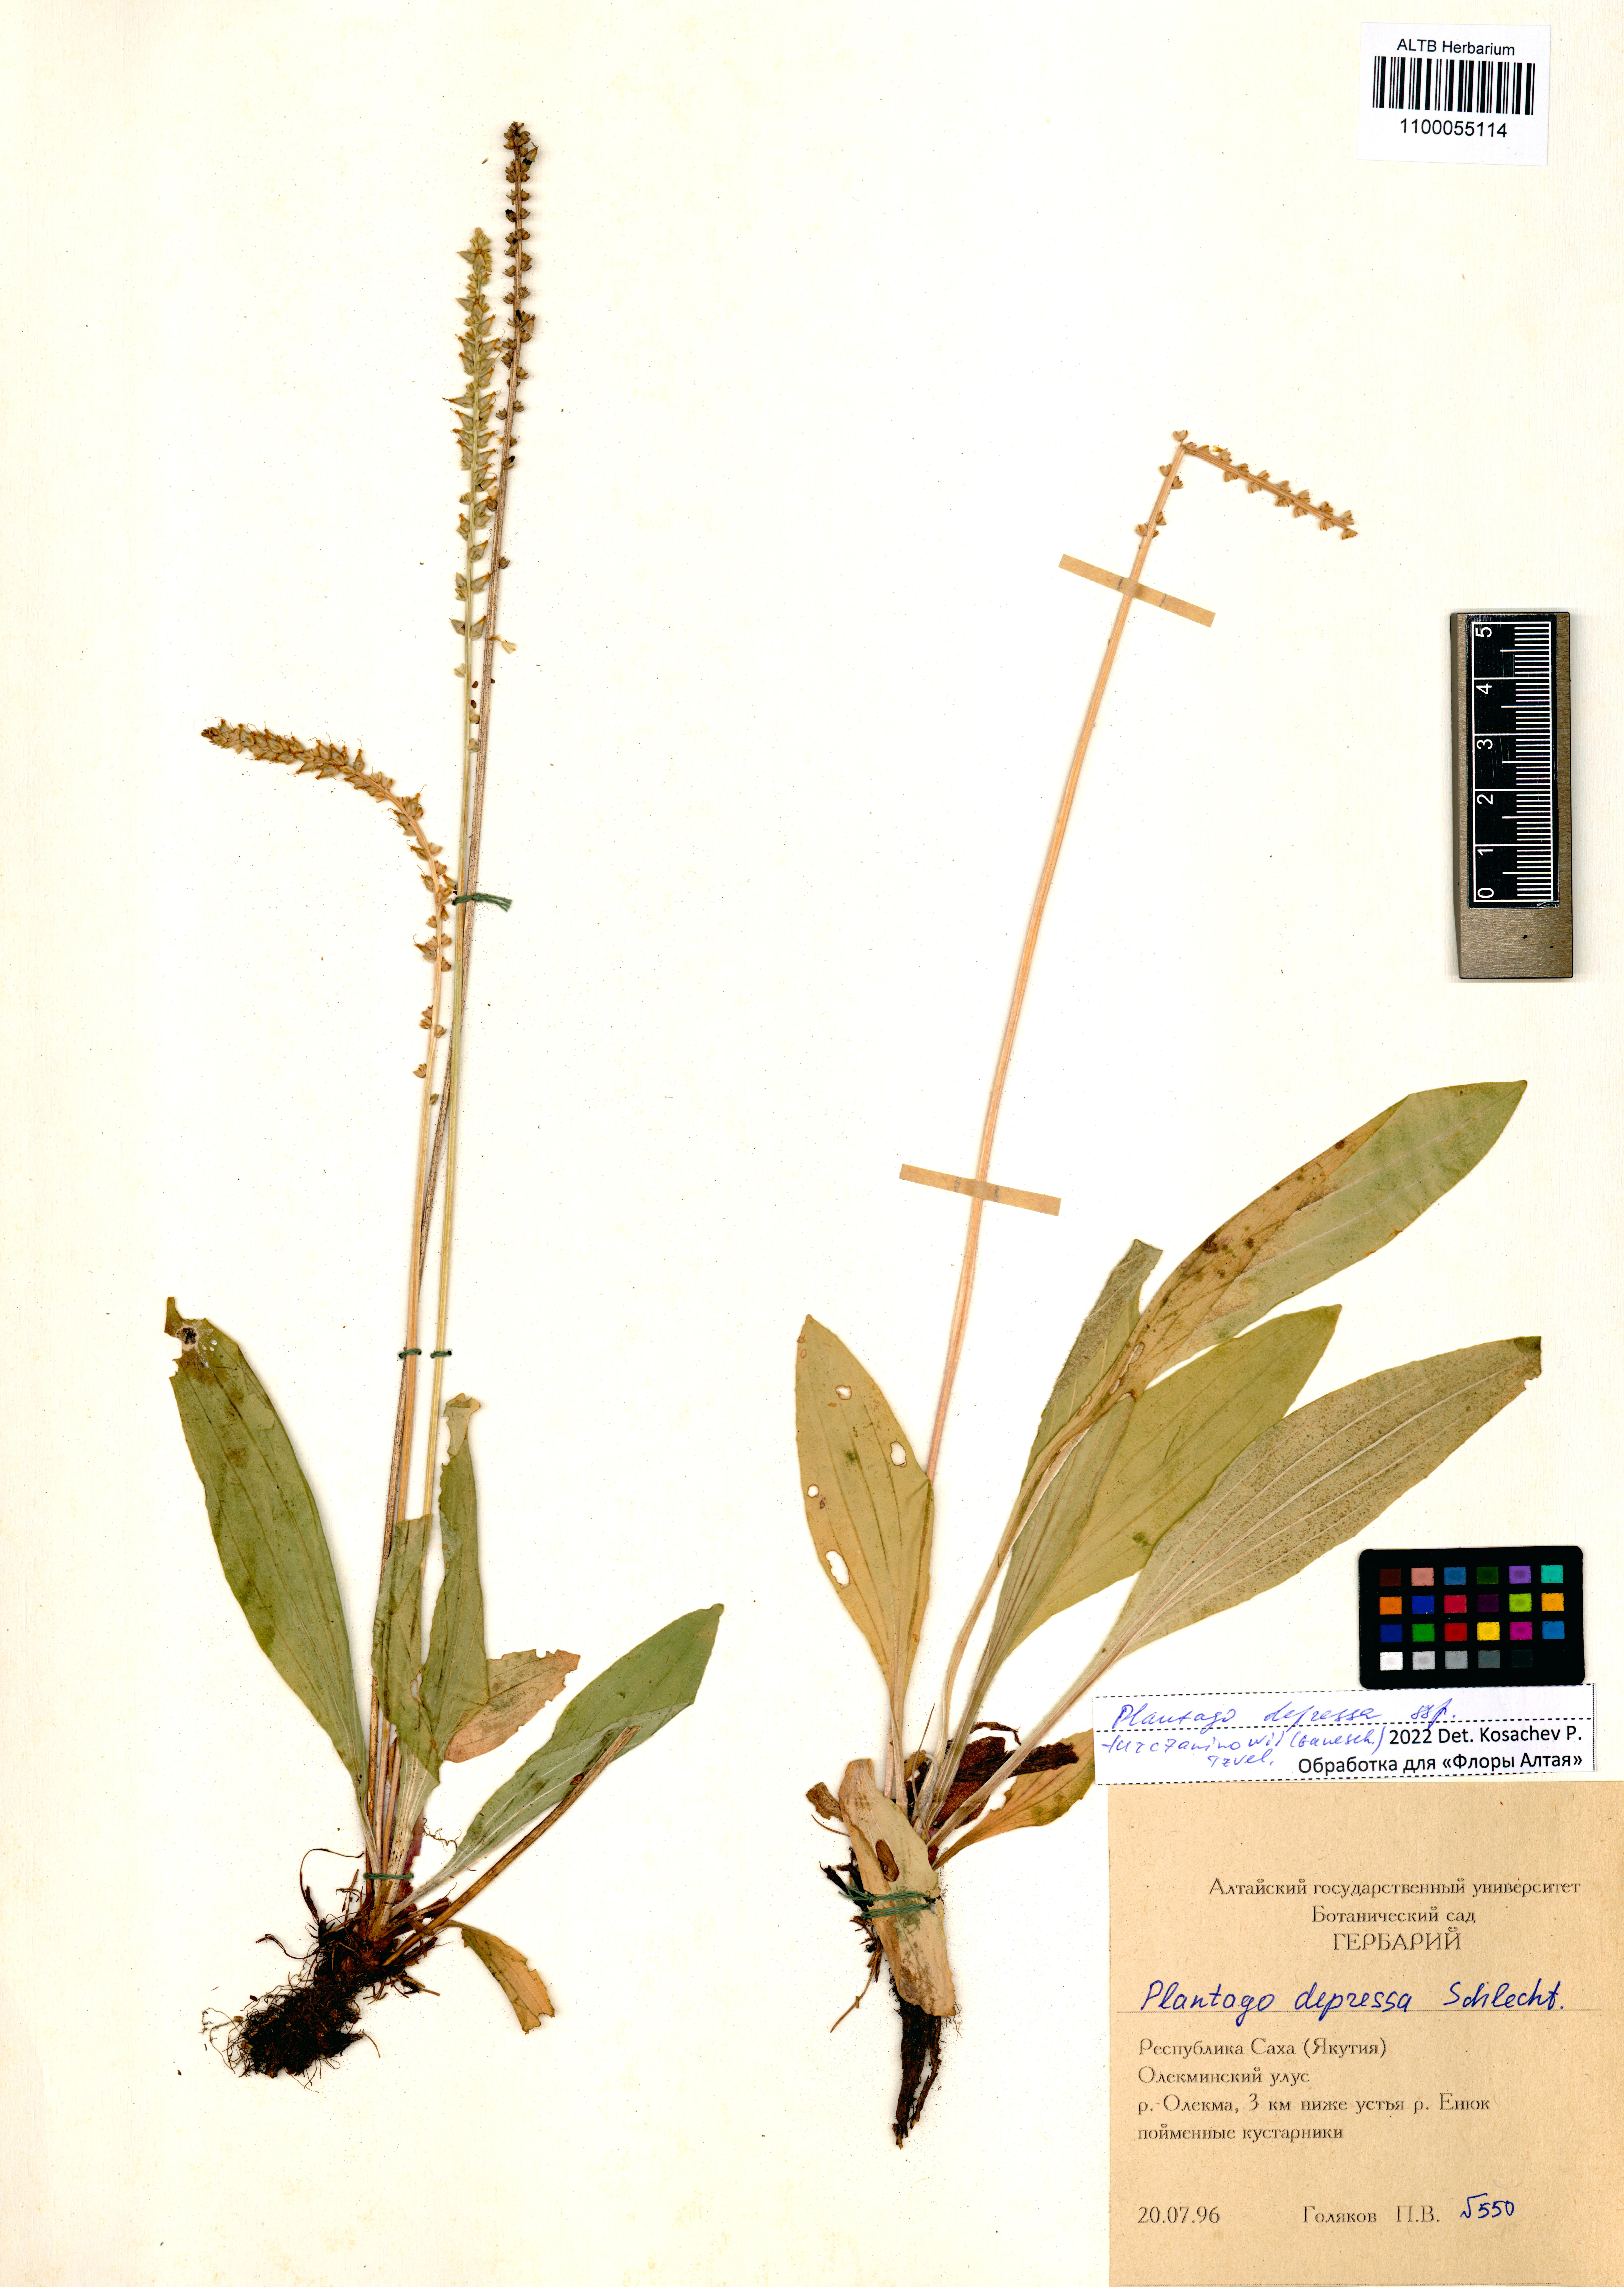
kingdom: Plantae
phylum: Tracheophyta
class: Magnoliopsida
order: Lamiales
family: Plantaginaceae
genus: Plantago
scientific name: Plantago depressa
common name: Depressed plantain
